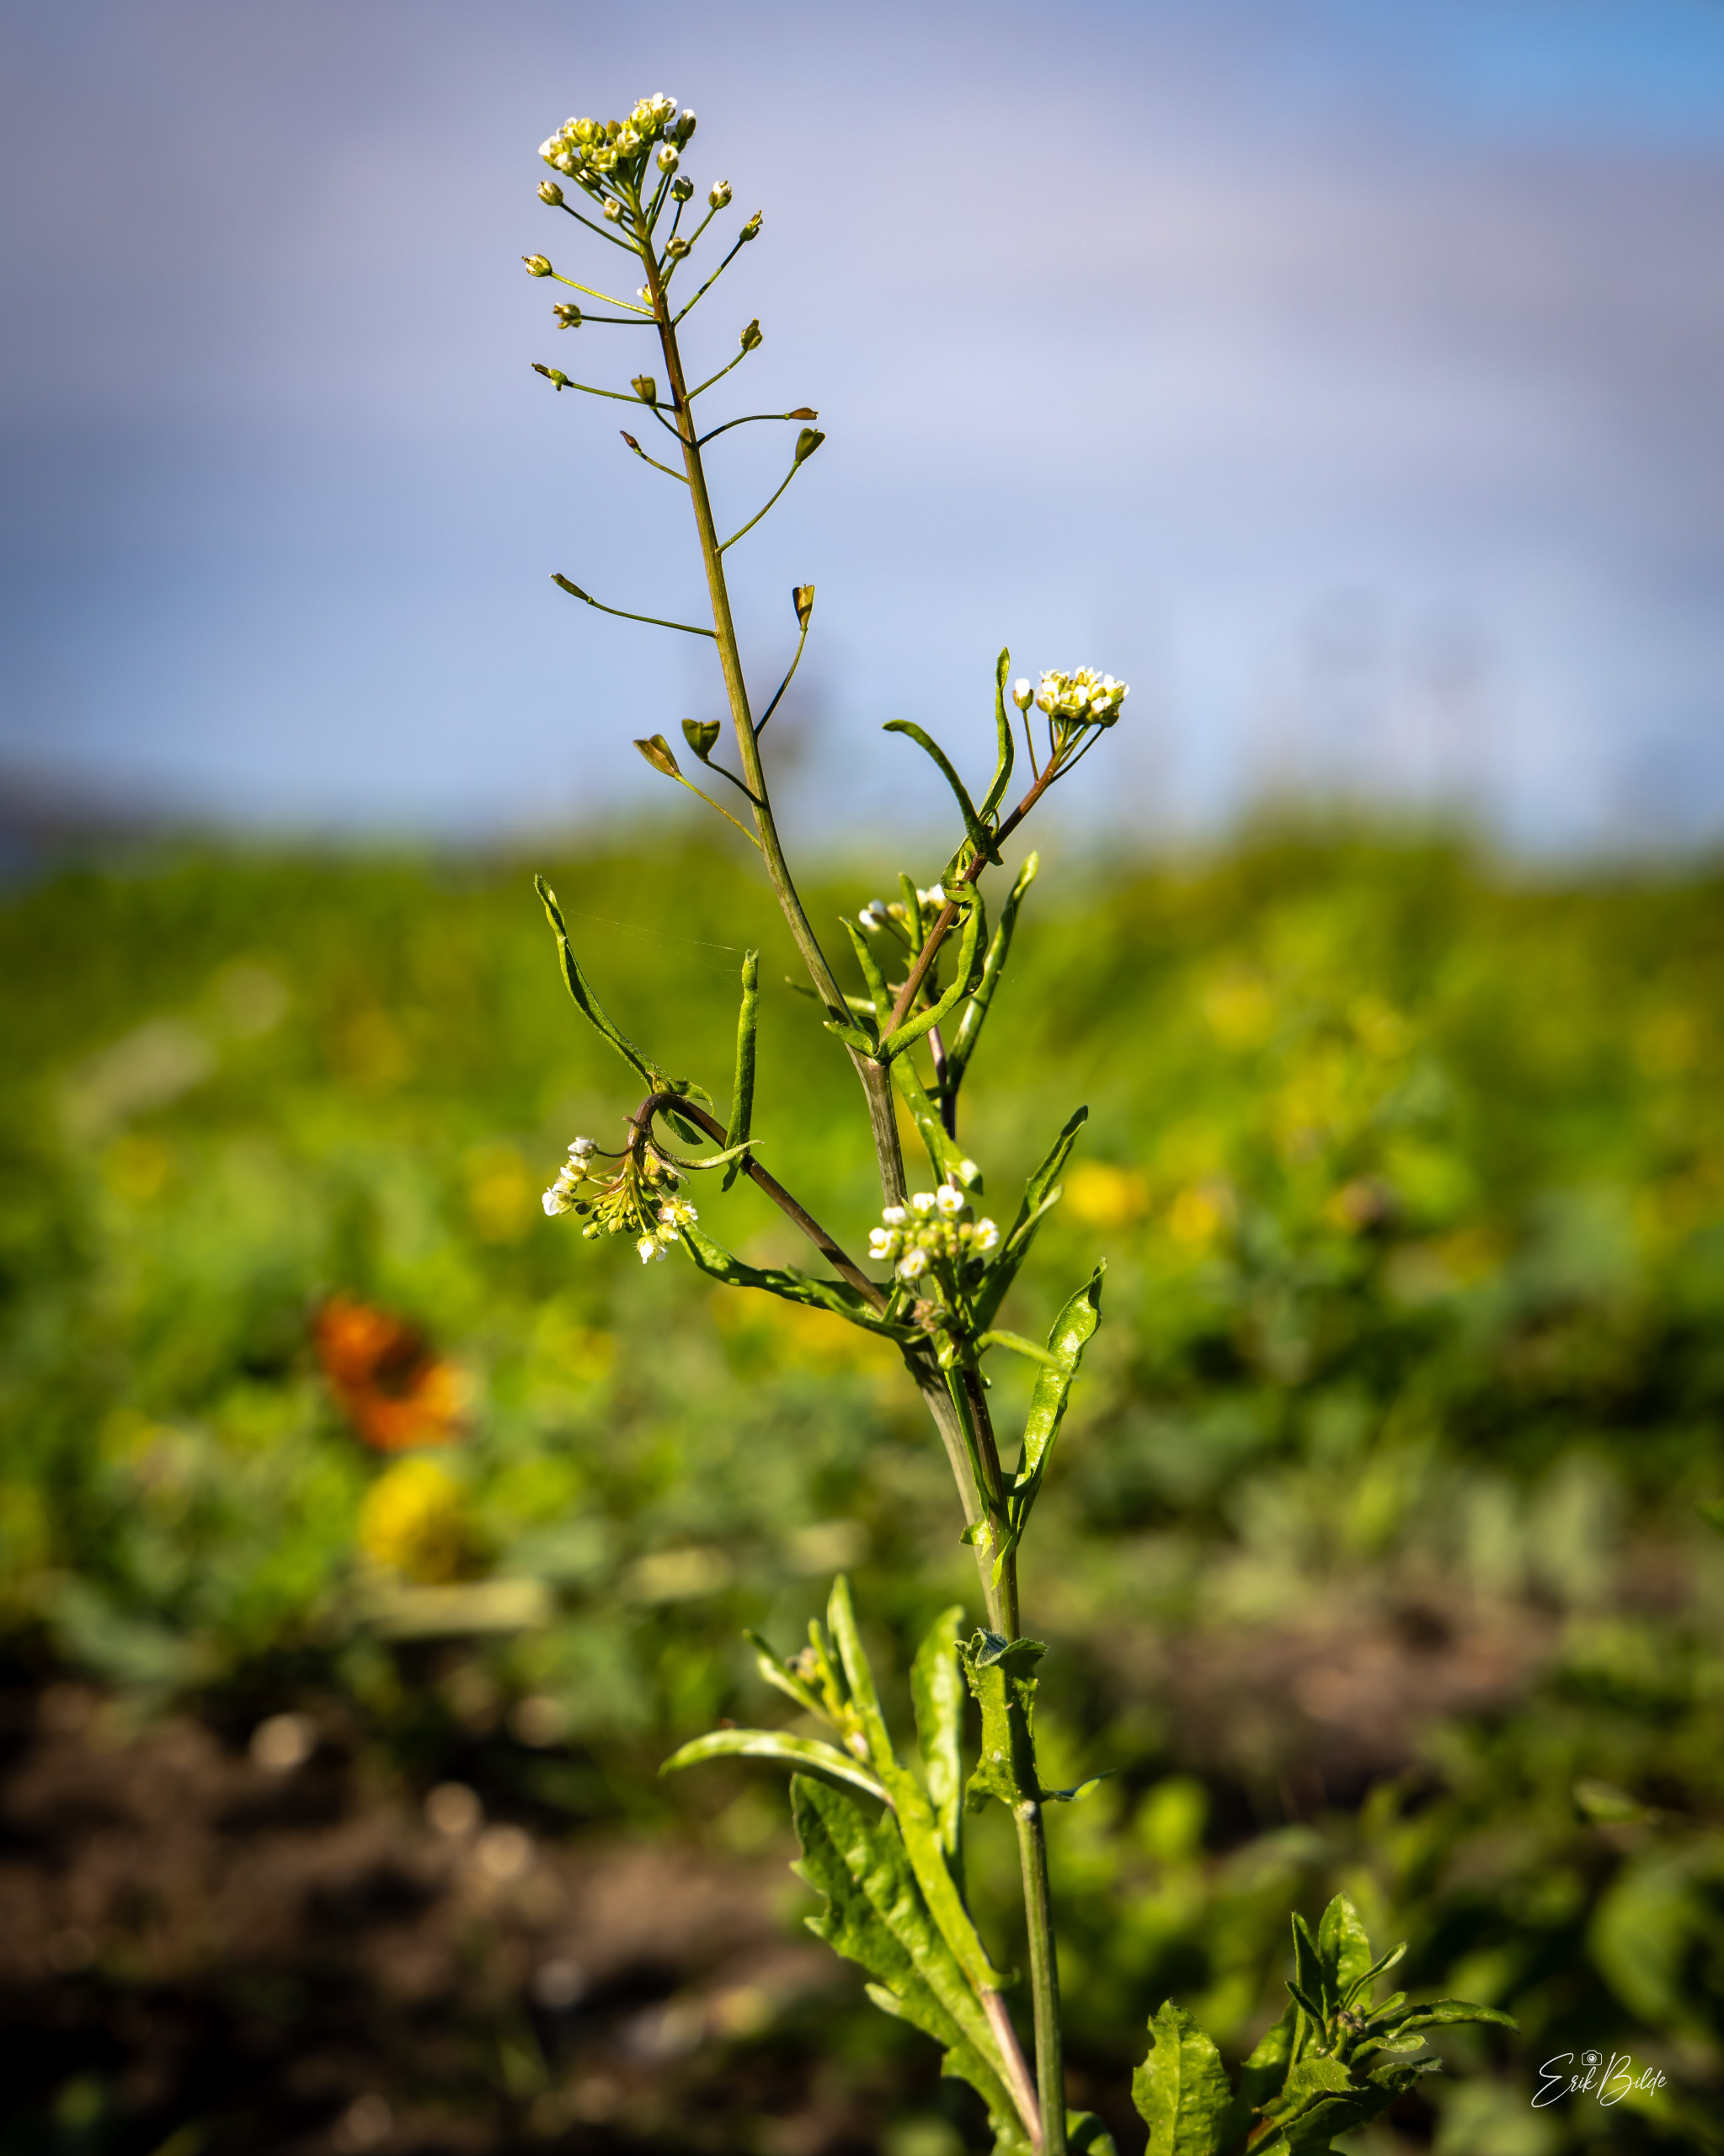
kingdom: Plantae
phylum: Tracheophyta
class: Magnoliopsida
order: Brassicales
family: Brassicaceae
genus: Capsella
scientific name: Capsella bursa-pastoris
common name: Hyrdetaske
